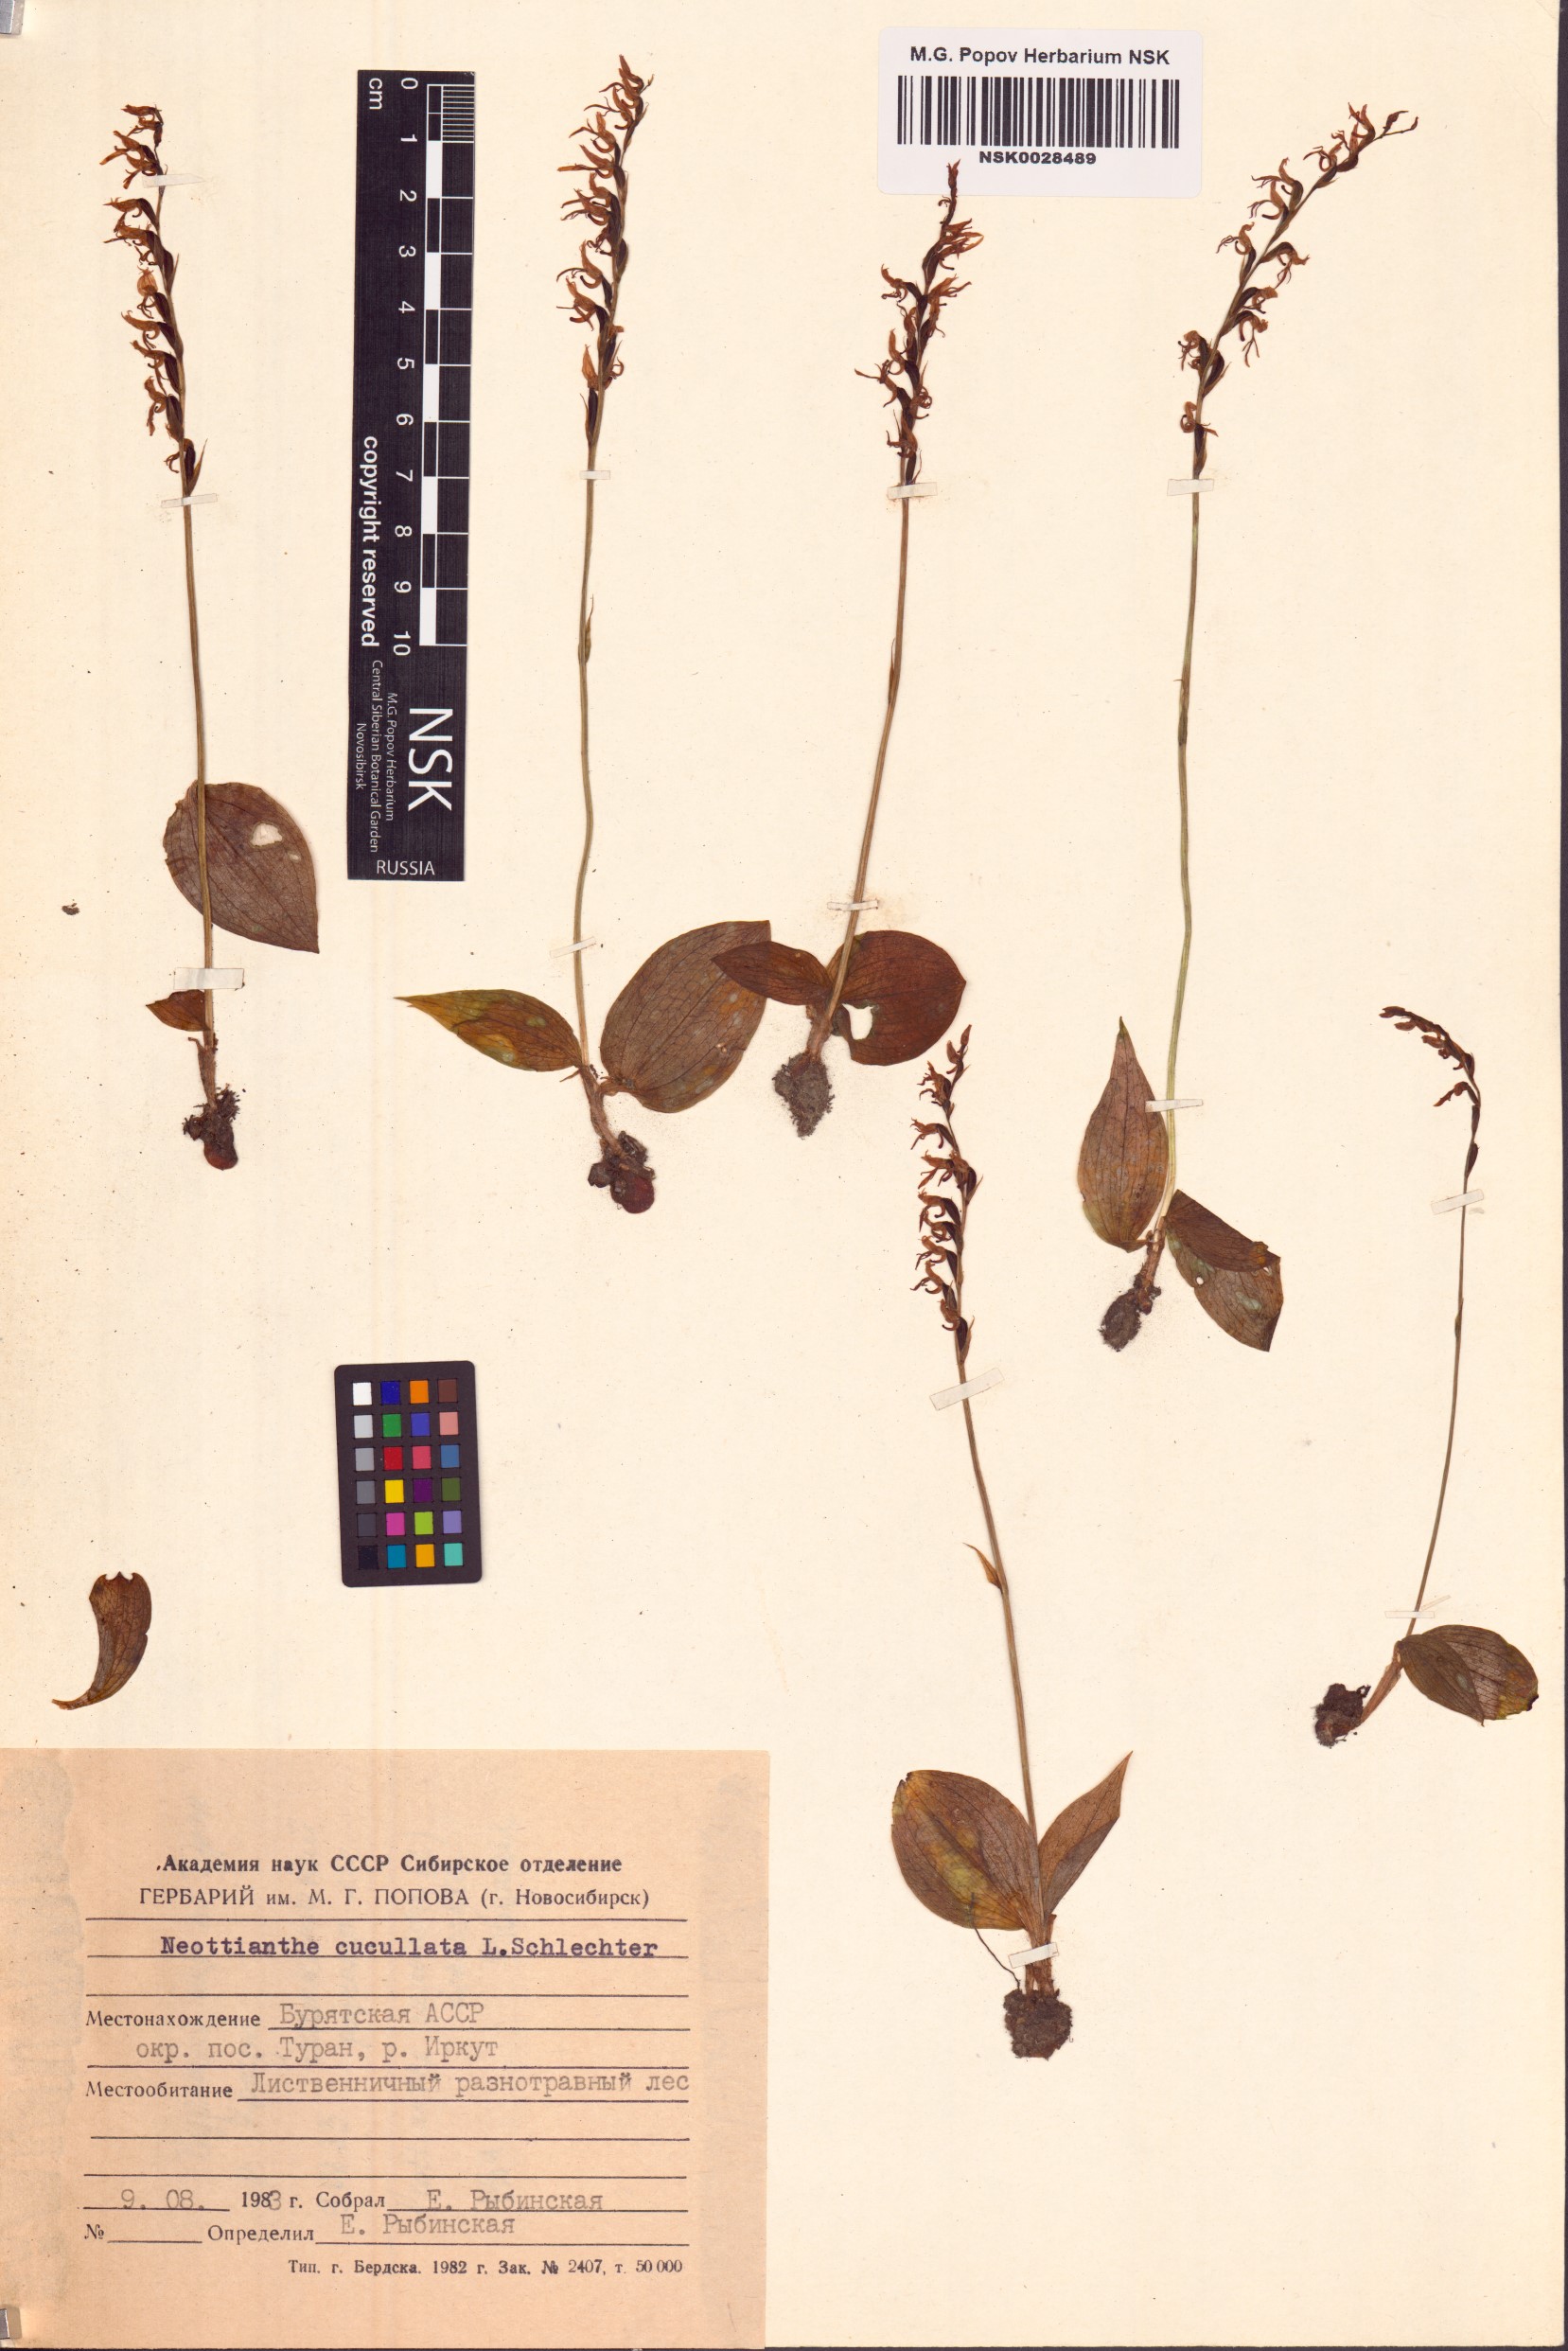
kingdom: Plantae
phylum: Tracheophyta
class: Liliopsida
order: Asparagales
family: Orchidaceae
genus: Hemipilia
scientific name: Hemipilia cucullata
